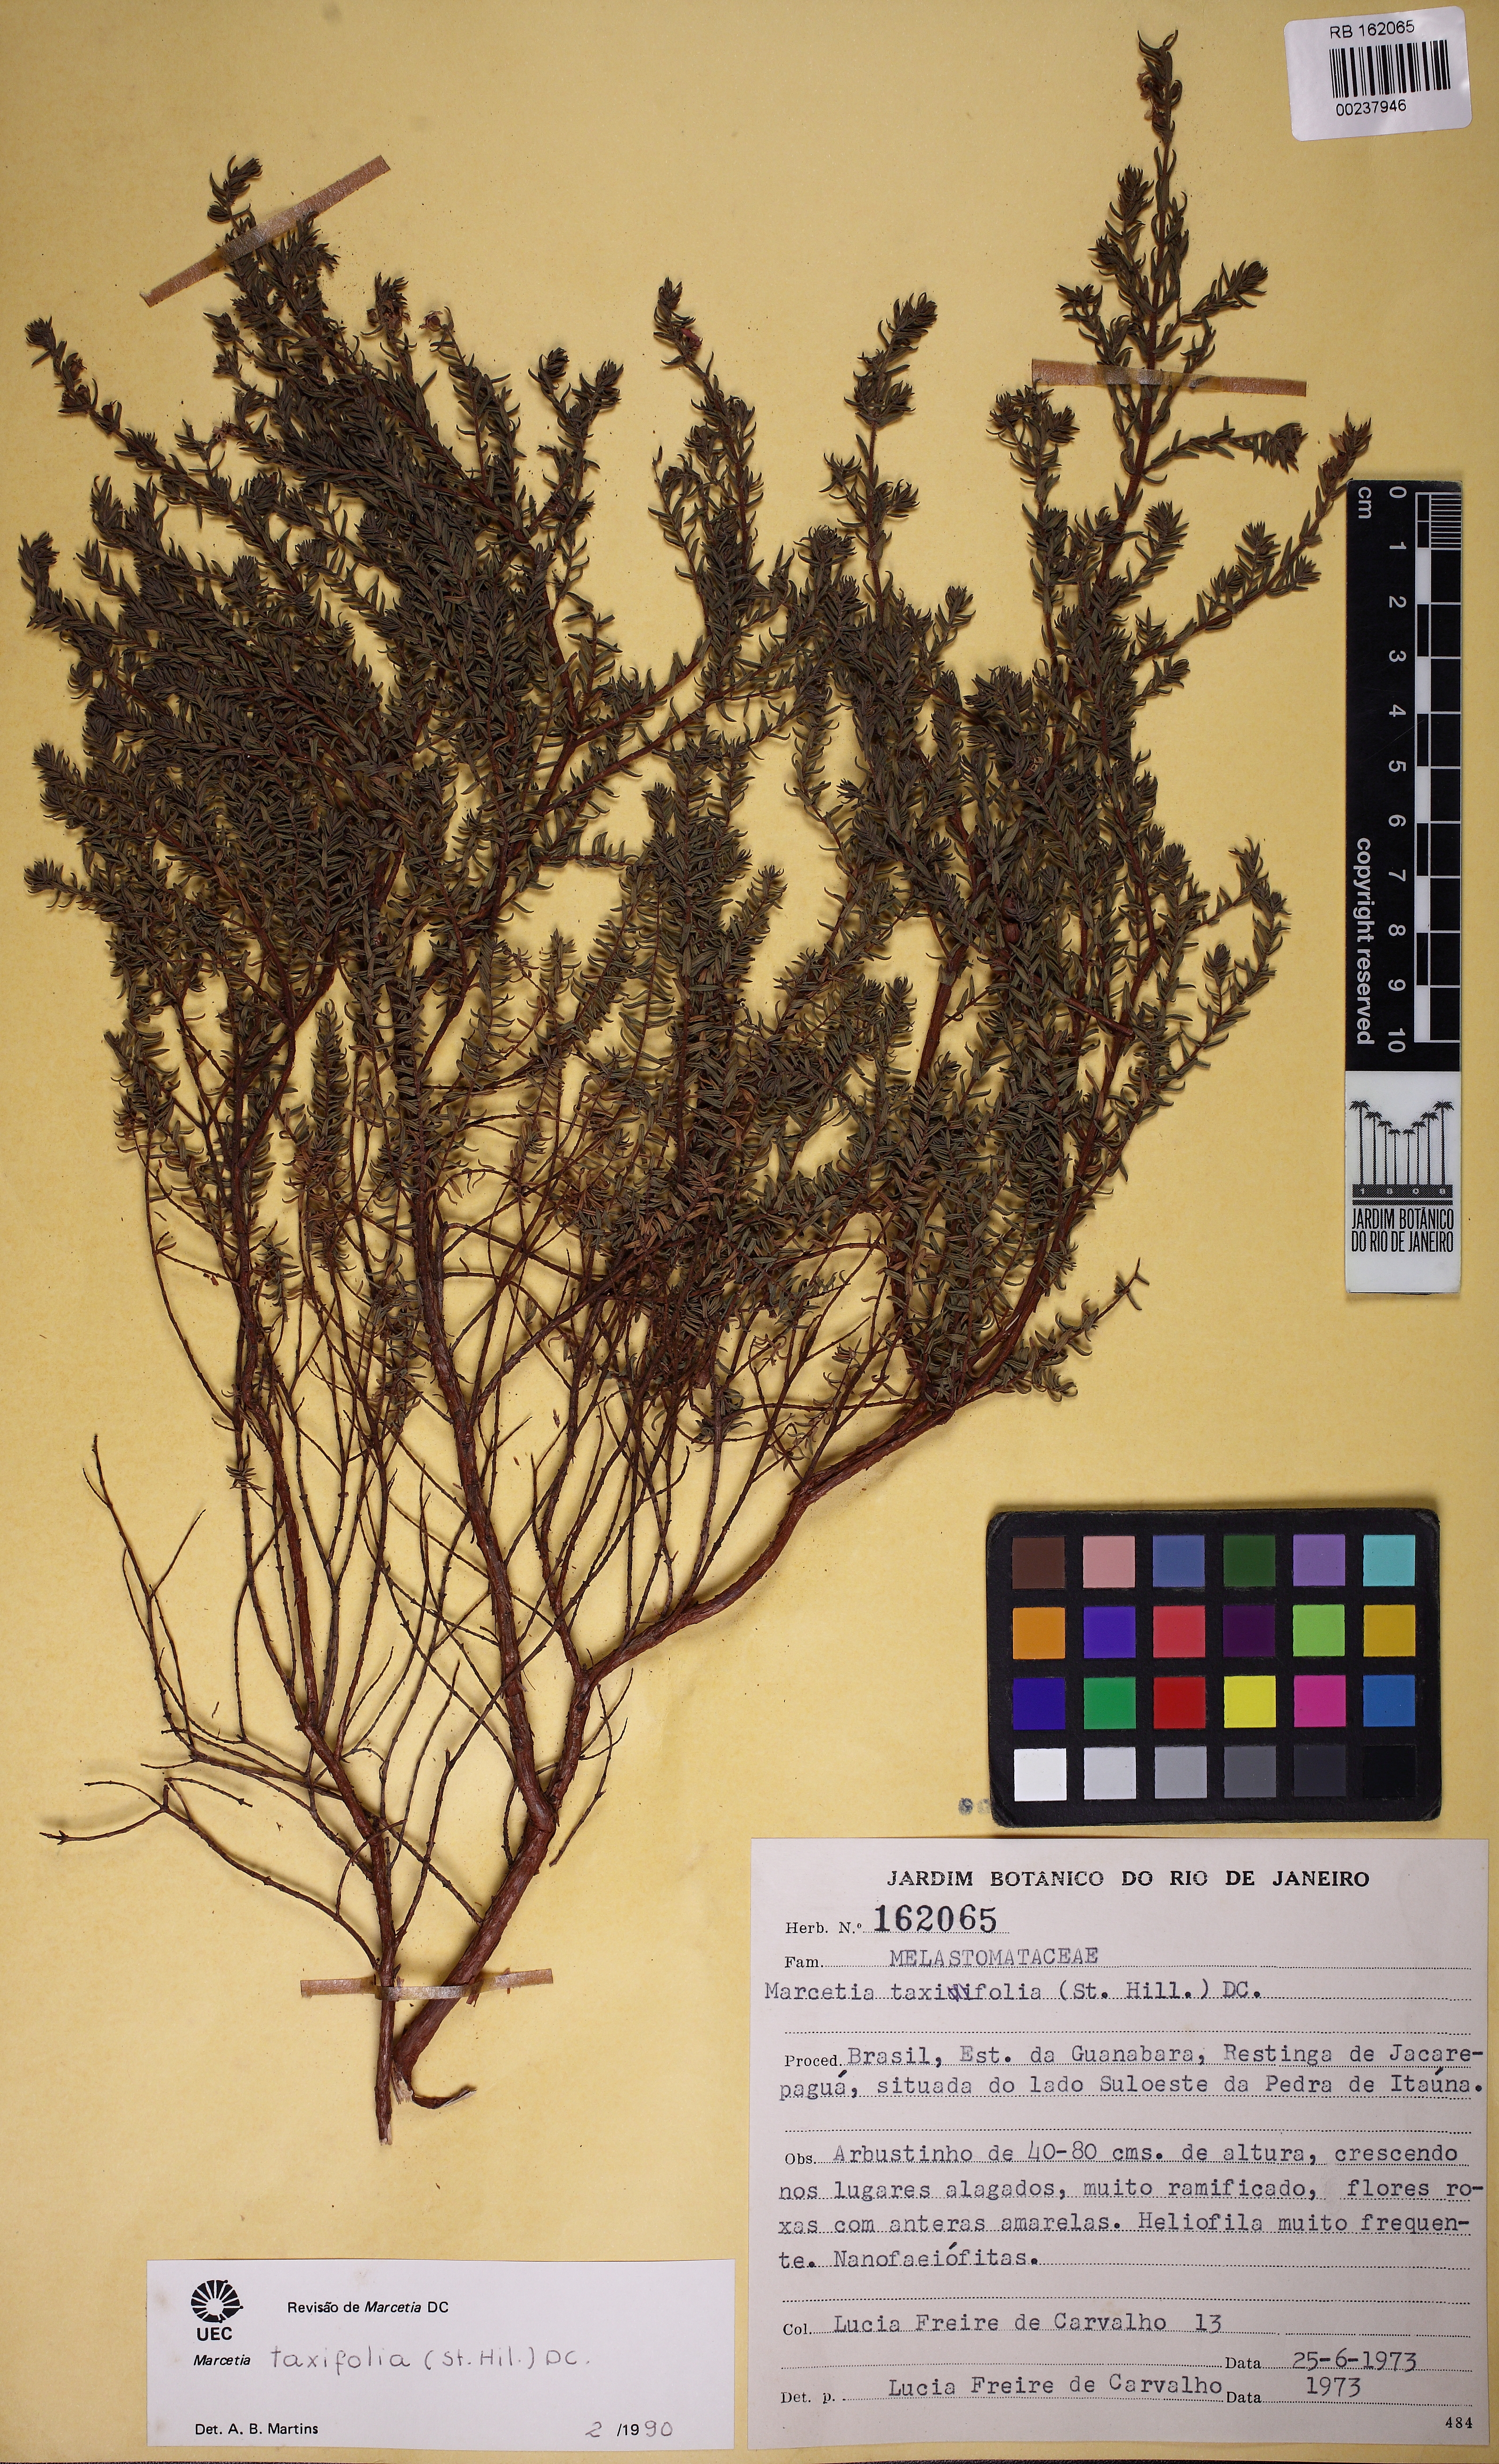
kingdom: Plantae
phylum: Tracheophyta
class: Magnoliopsida
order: Myrtales
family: Melastomataceae
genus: Marcetia
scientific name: Marcetia taxifolia
